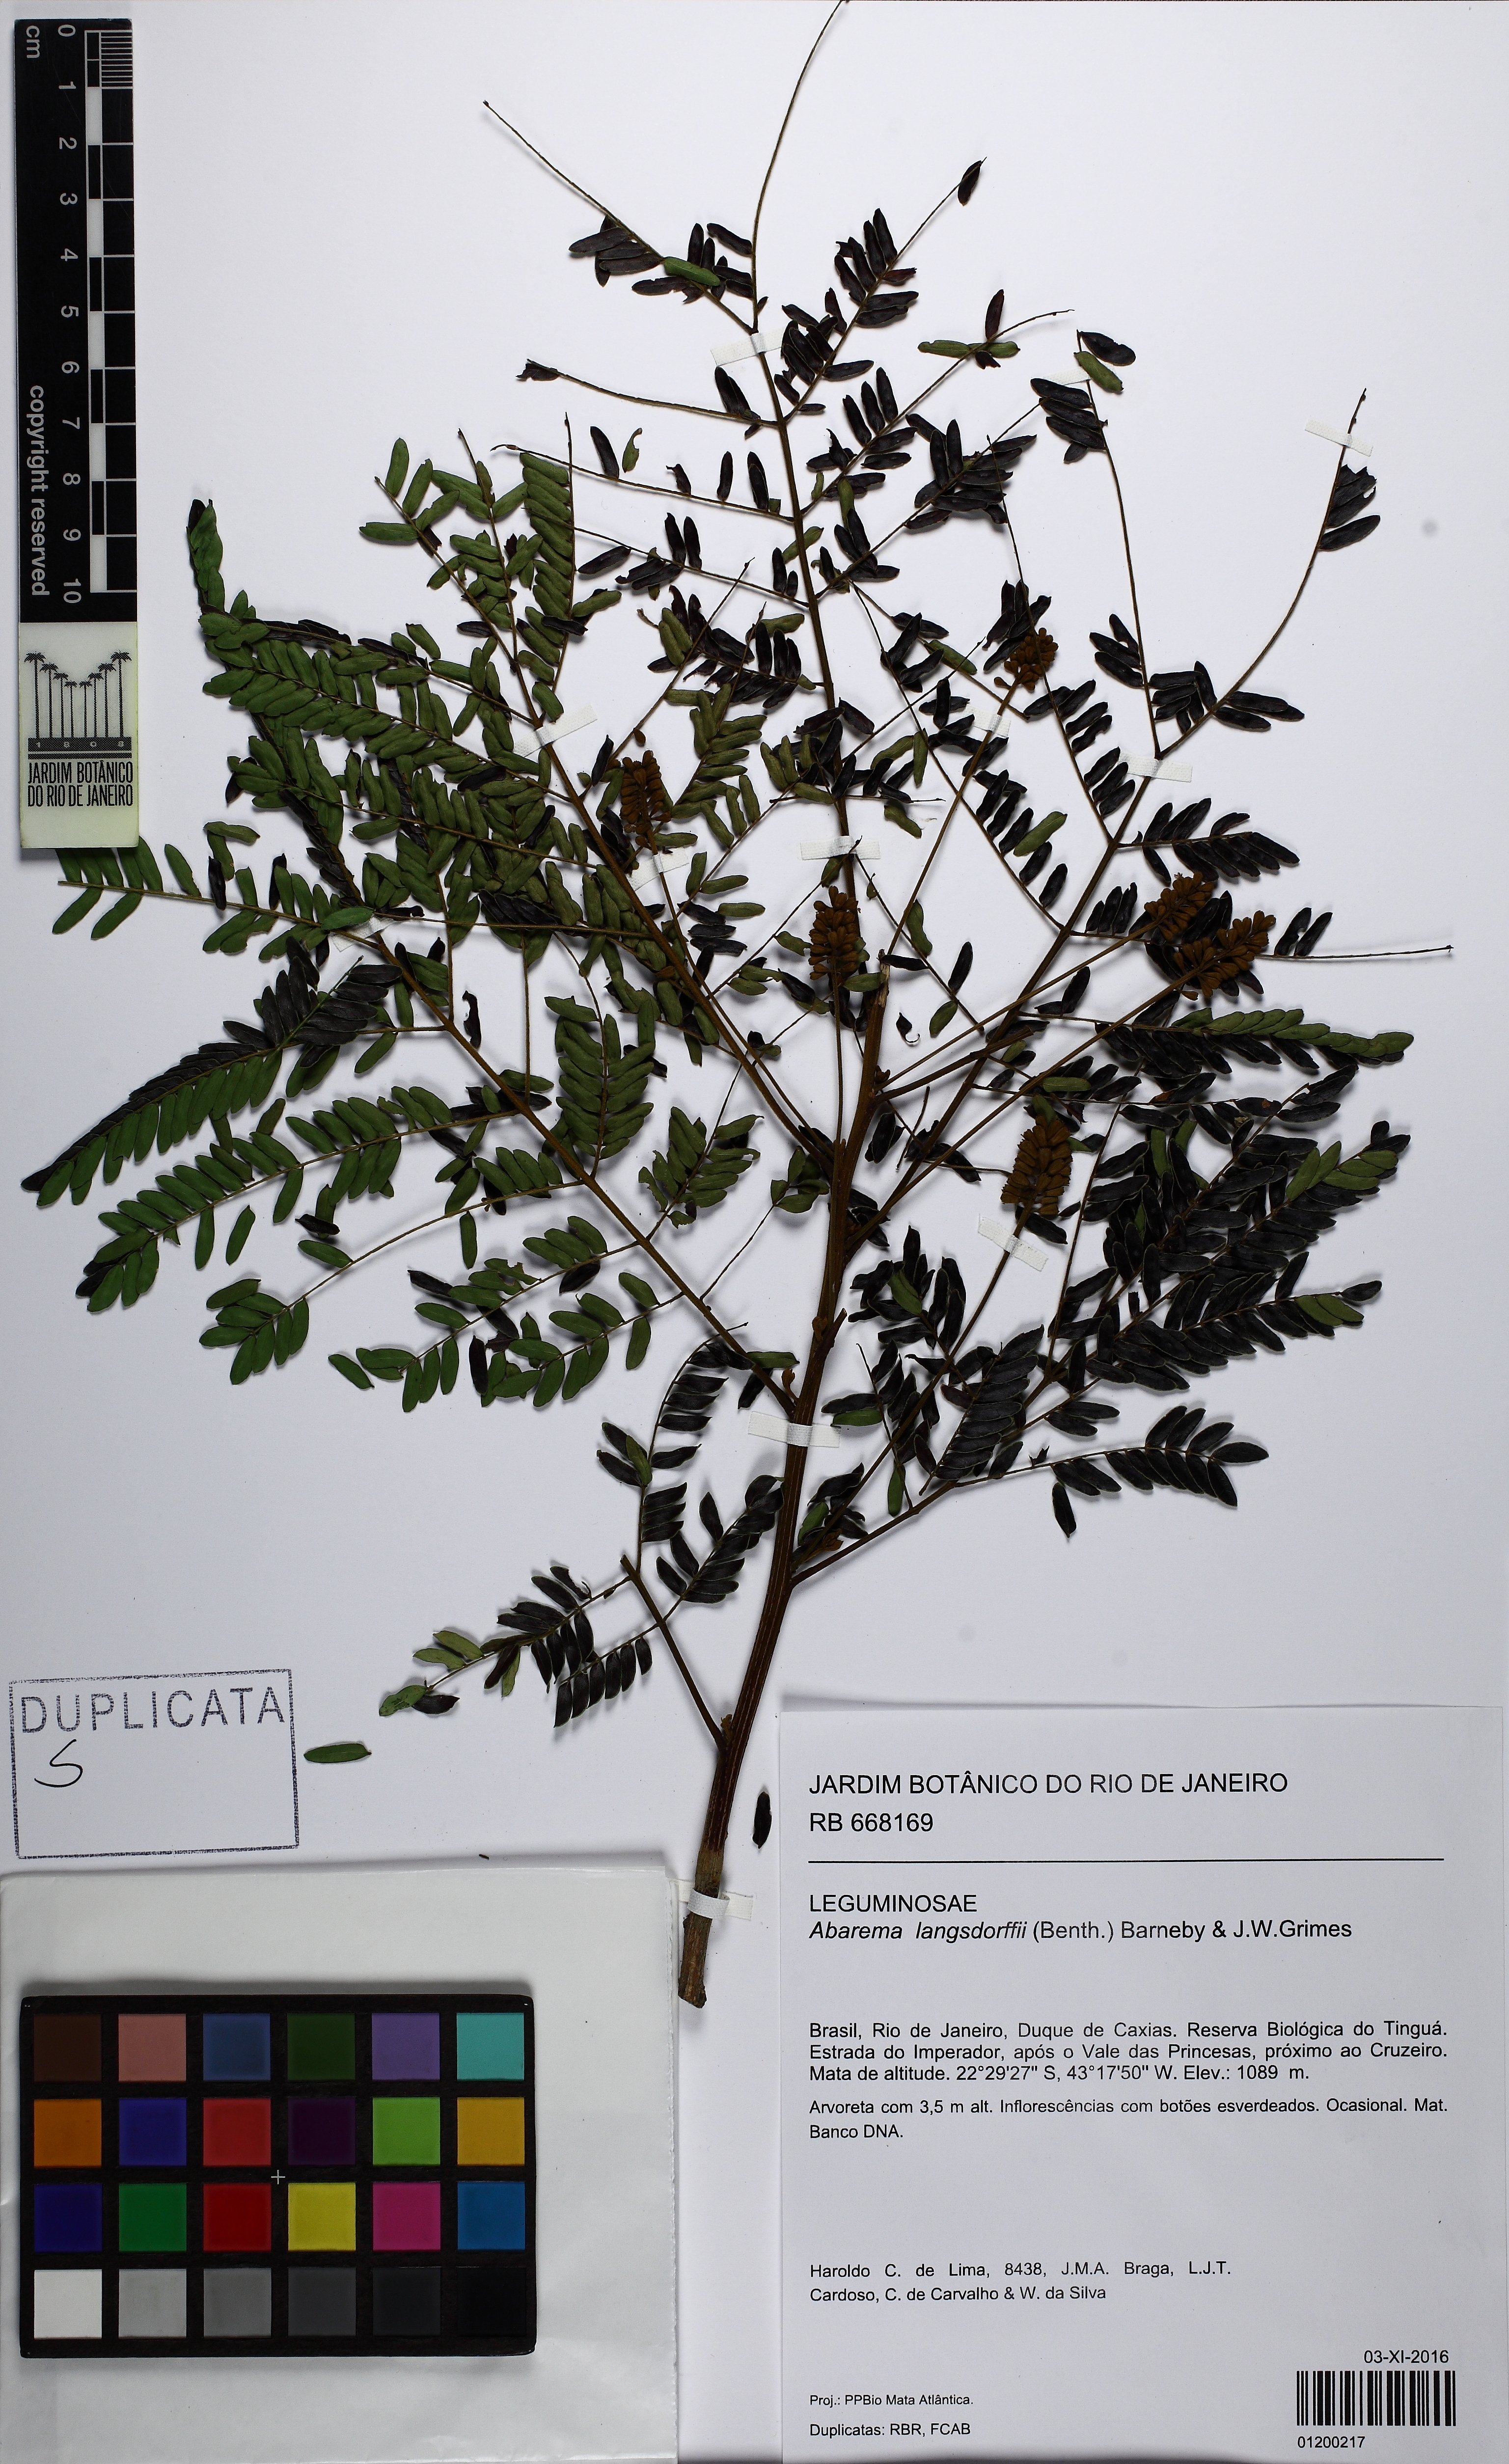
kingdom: Plantae
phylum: Tracheophyta
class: Magnoliopsida
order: Fabales
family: Fabaceae
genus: Jupunba
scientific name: Jupunba langsdorffii
